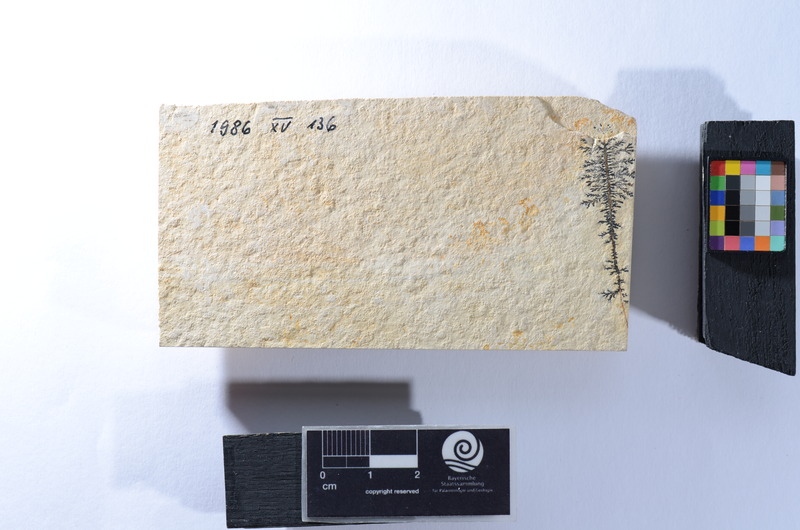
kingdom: Animalia
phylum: Chordata
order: Amiiformes
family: Liodesmidae
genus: Liodesmus
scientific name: Liodesmus sprattiformis
